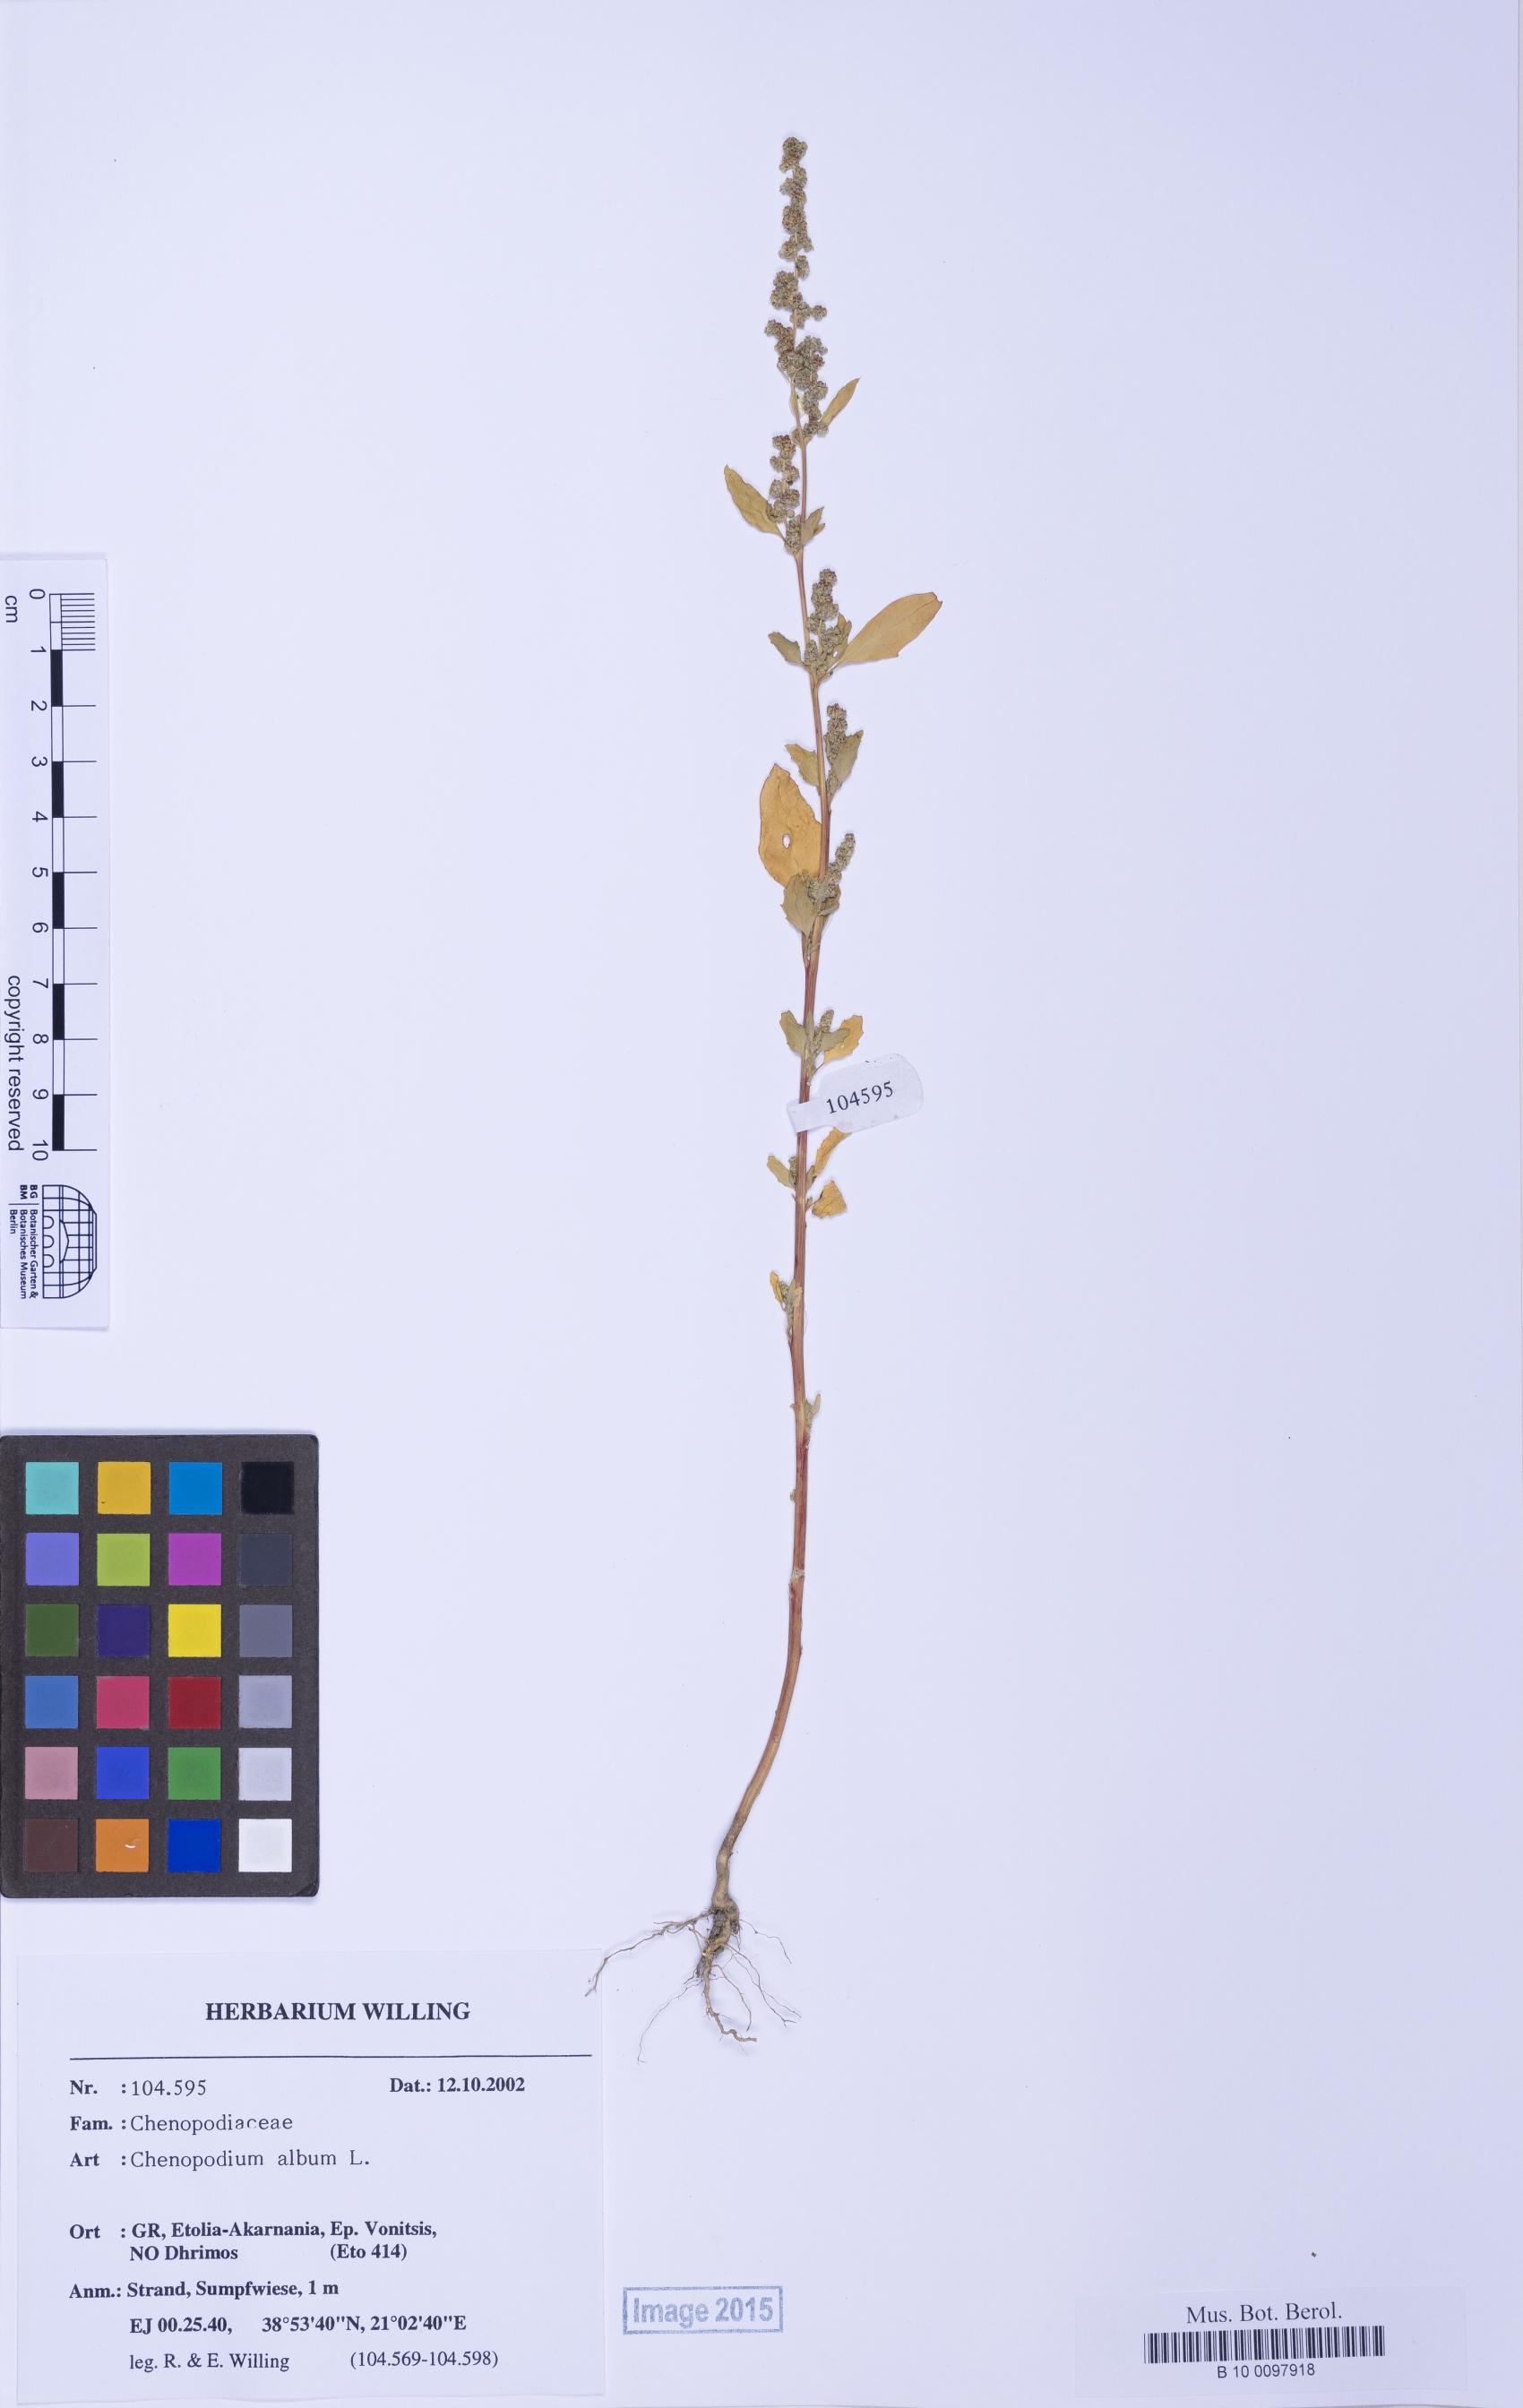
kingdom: Plantae
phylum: Tracheophyta
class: Magnoliopsida
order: Caryophyllales
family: Amaranthaceae
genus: Chenopodium
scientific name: Chenopodium betaceum
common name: Striped goosefoot
